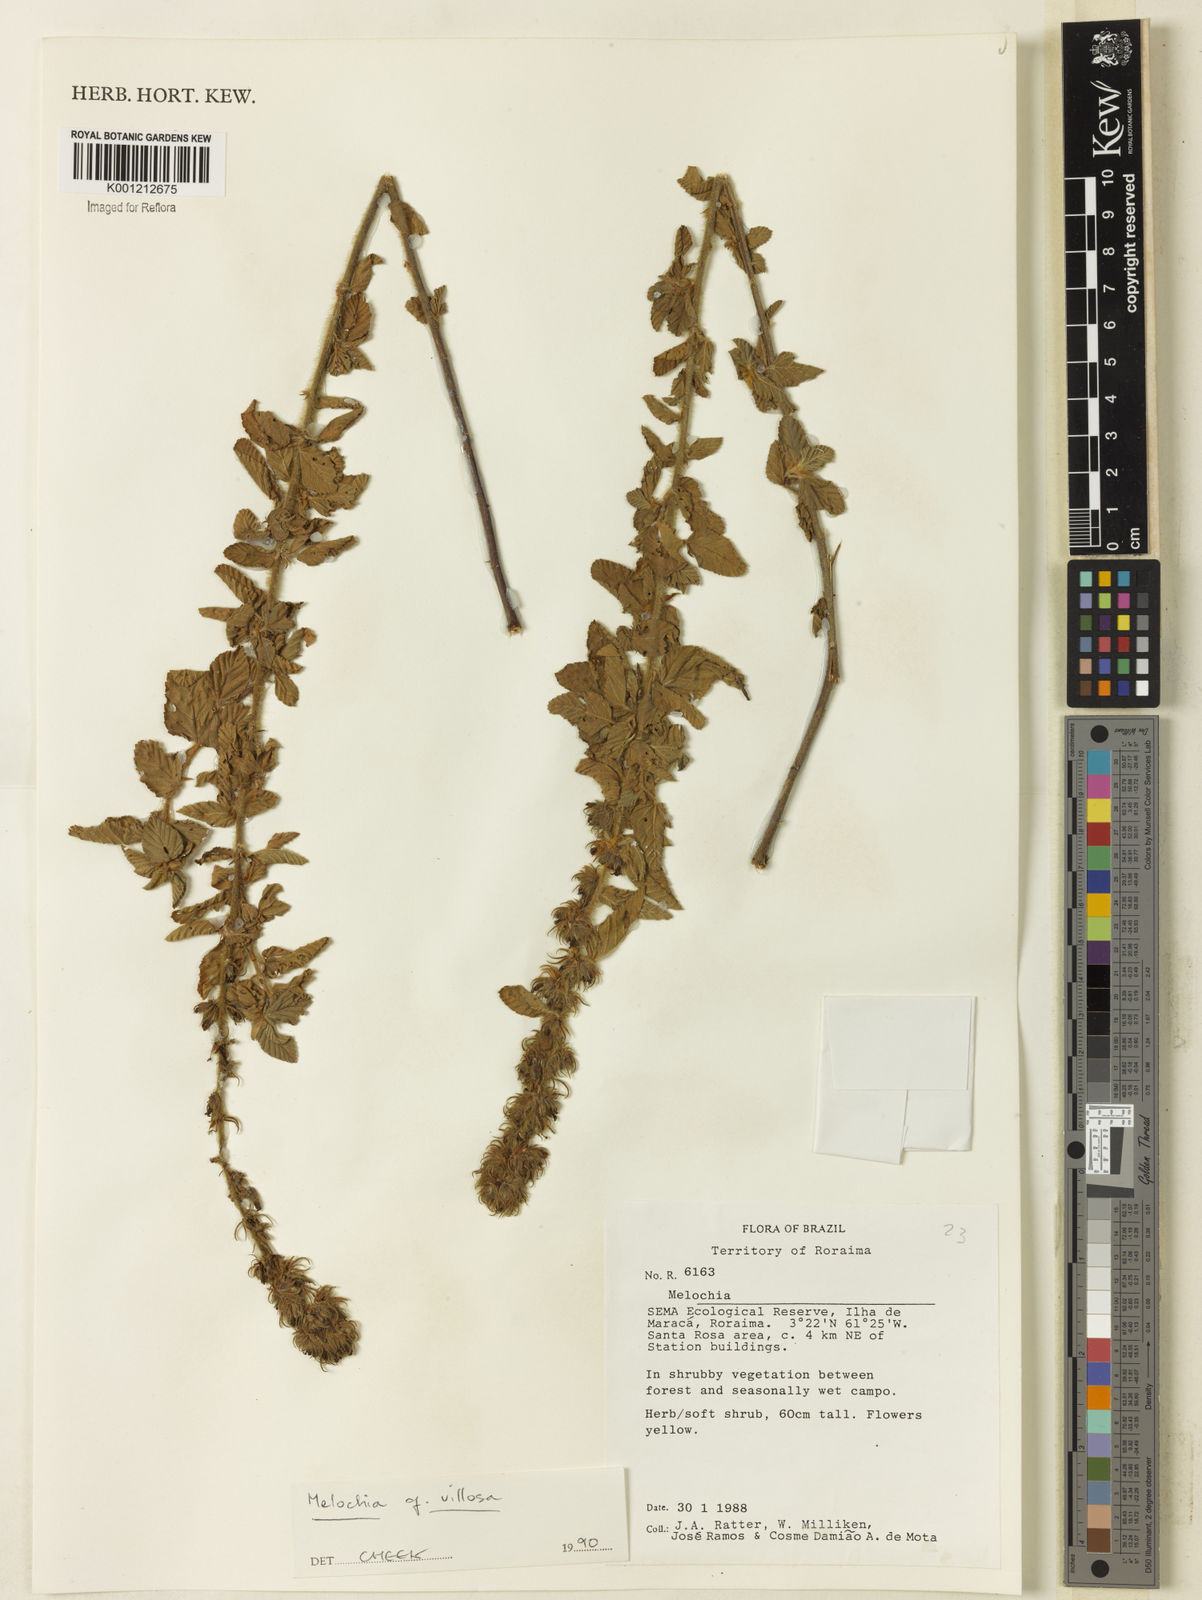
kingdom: Plantae
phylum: Tracheophyta
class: Magnoliopsida
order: Malvales
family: Malvaceae
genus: Melochia
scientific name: Melochia spicata
